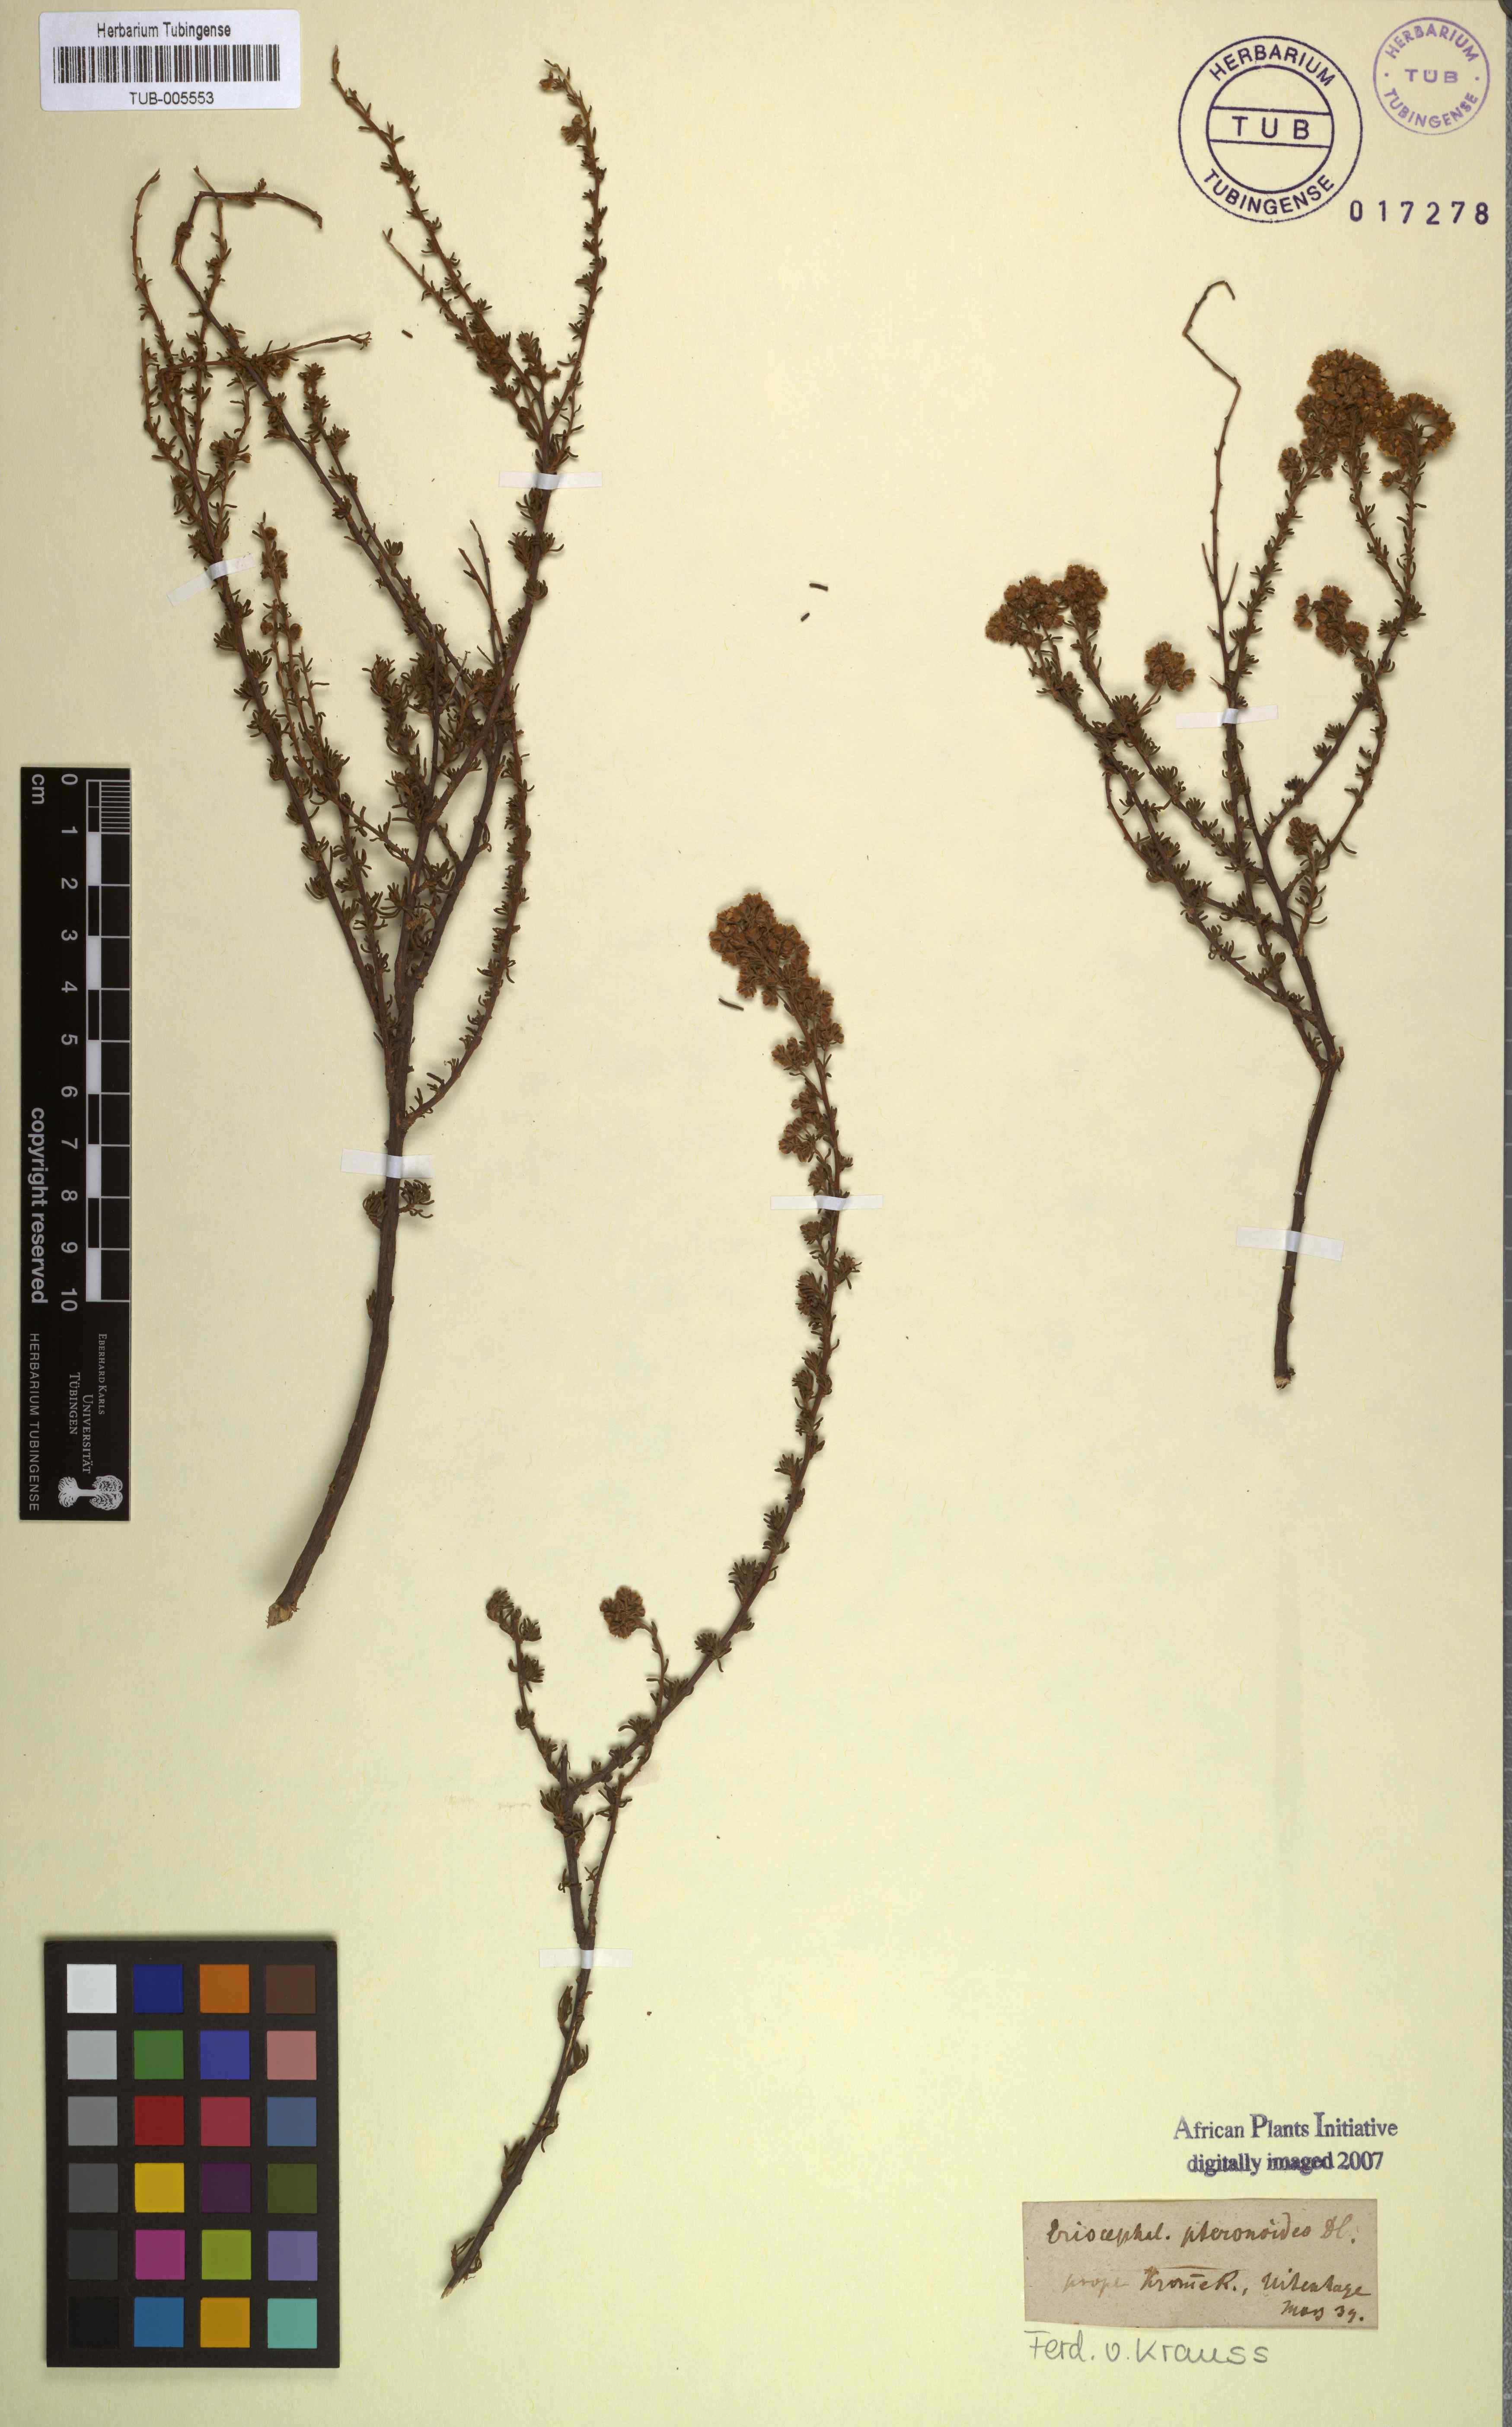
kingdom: Plantae
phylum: Tracheophyta
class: Magnoliopsida
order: Asterales
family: Asteraceae
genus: Eriocephalus
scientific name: Eriocephalus punctulatus
